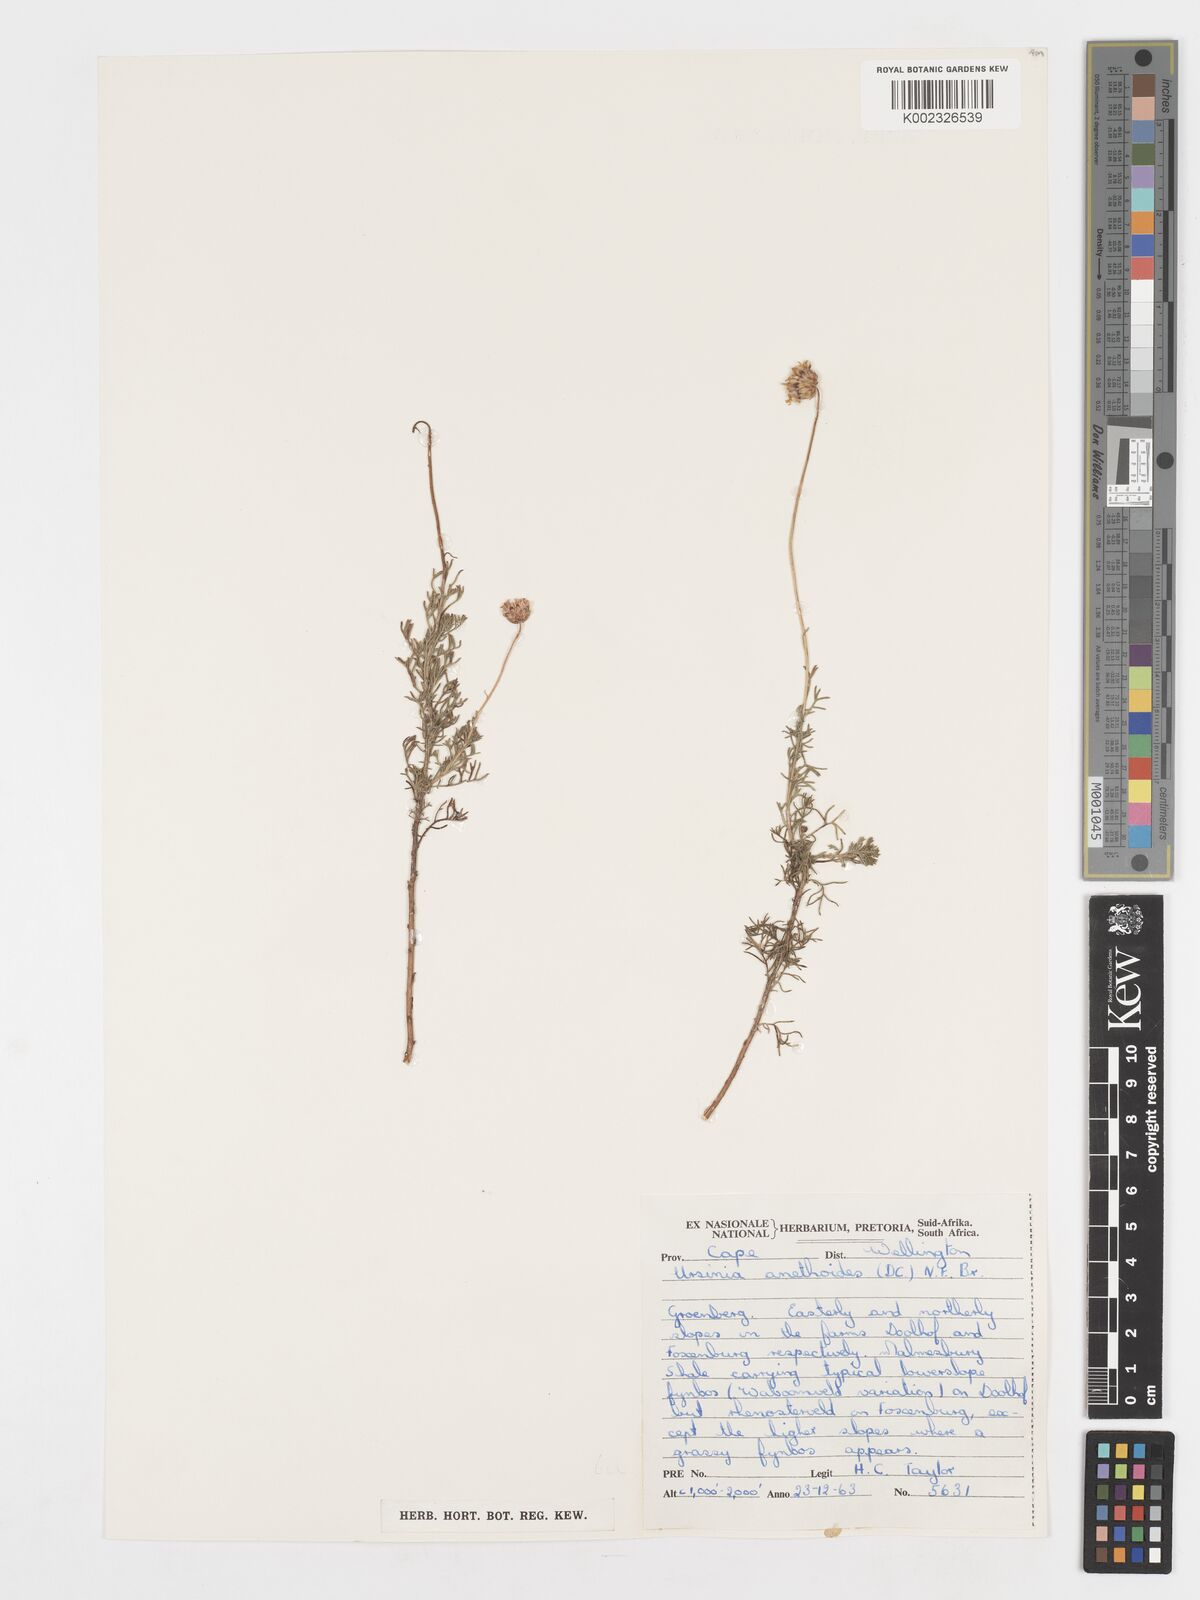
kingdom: Plantae
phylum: Tracheophyta
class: Magnoliopsida
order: Asterales
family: Asteraceae
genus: Ursinia
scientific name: Ursinia anethoides
